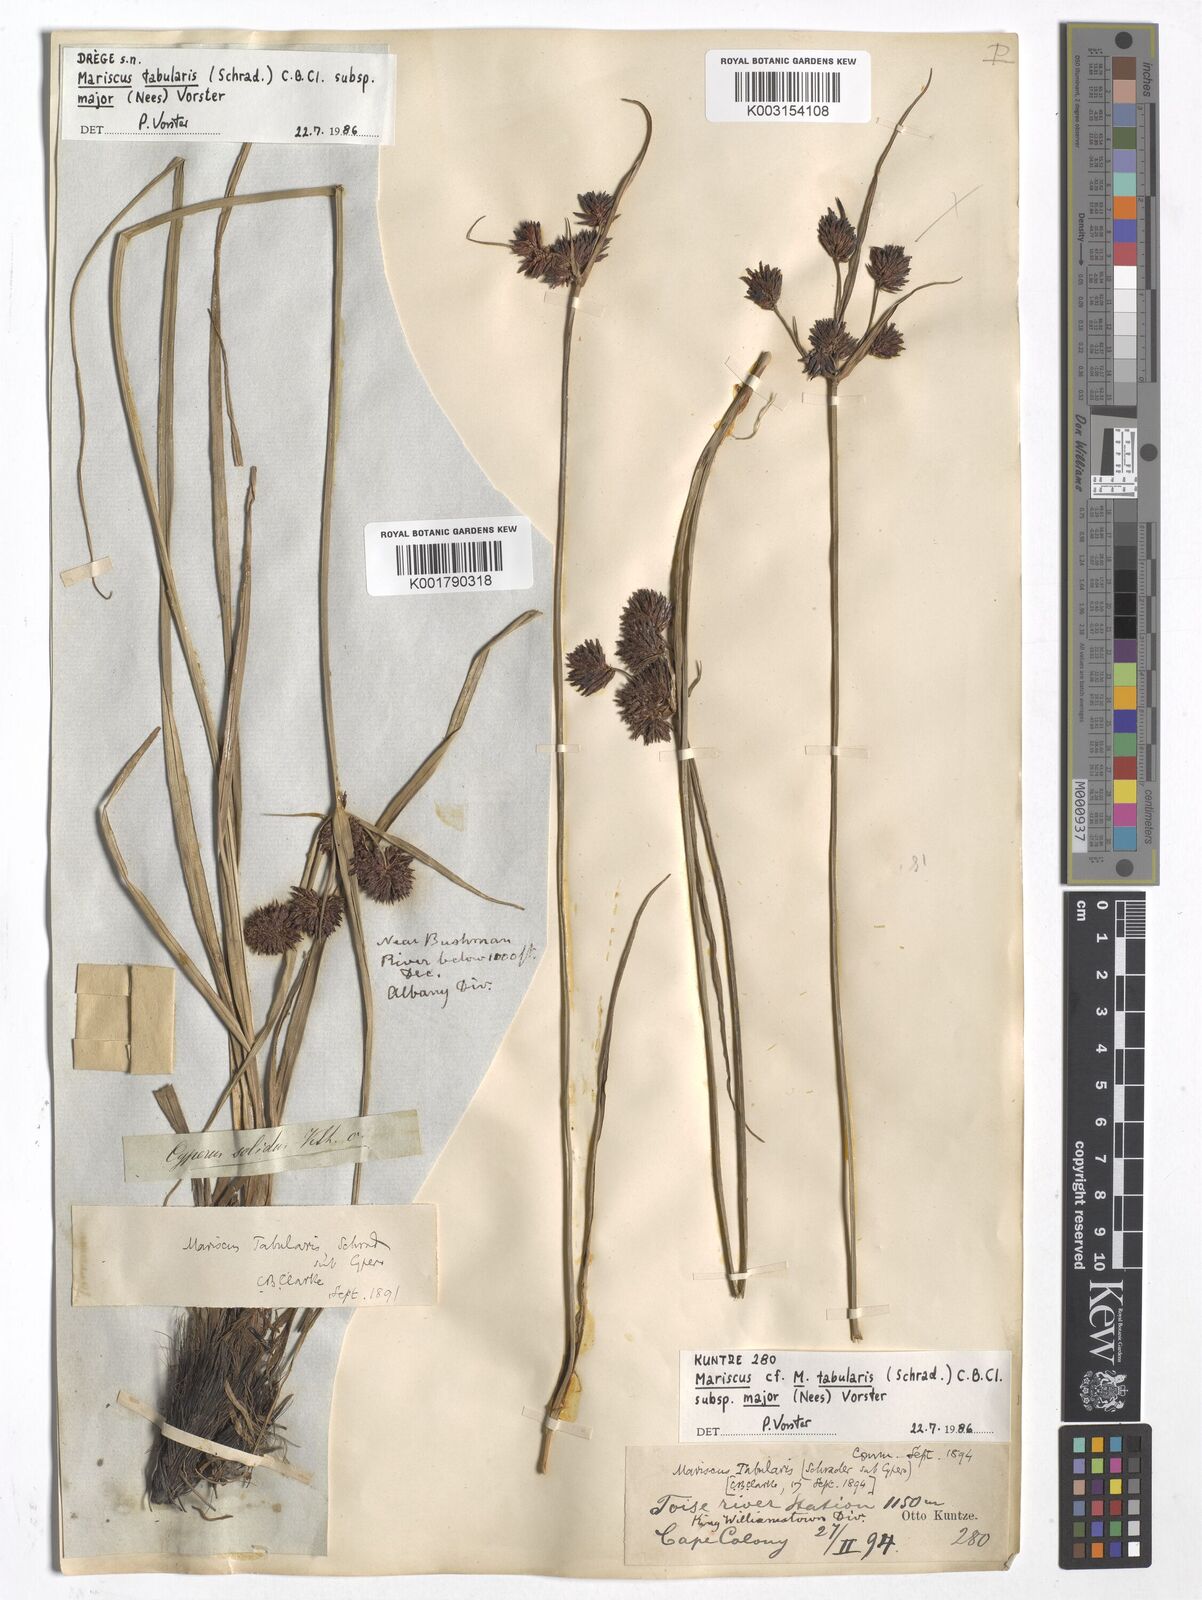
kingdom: Plantae
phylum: Tracheophyta
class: Liliopsida
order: Poales
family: Cyperaceae
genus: Cyperus
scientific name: Cyperus tabularis
